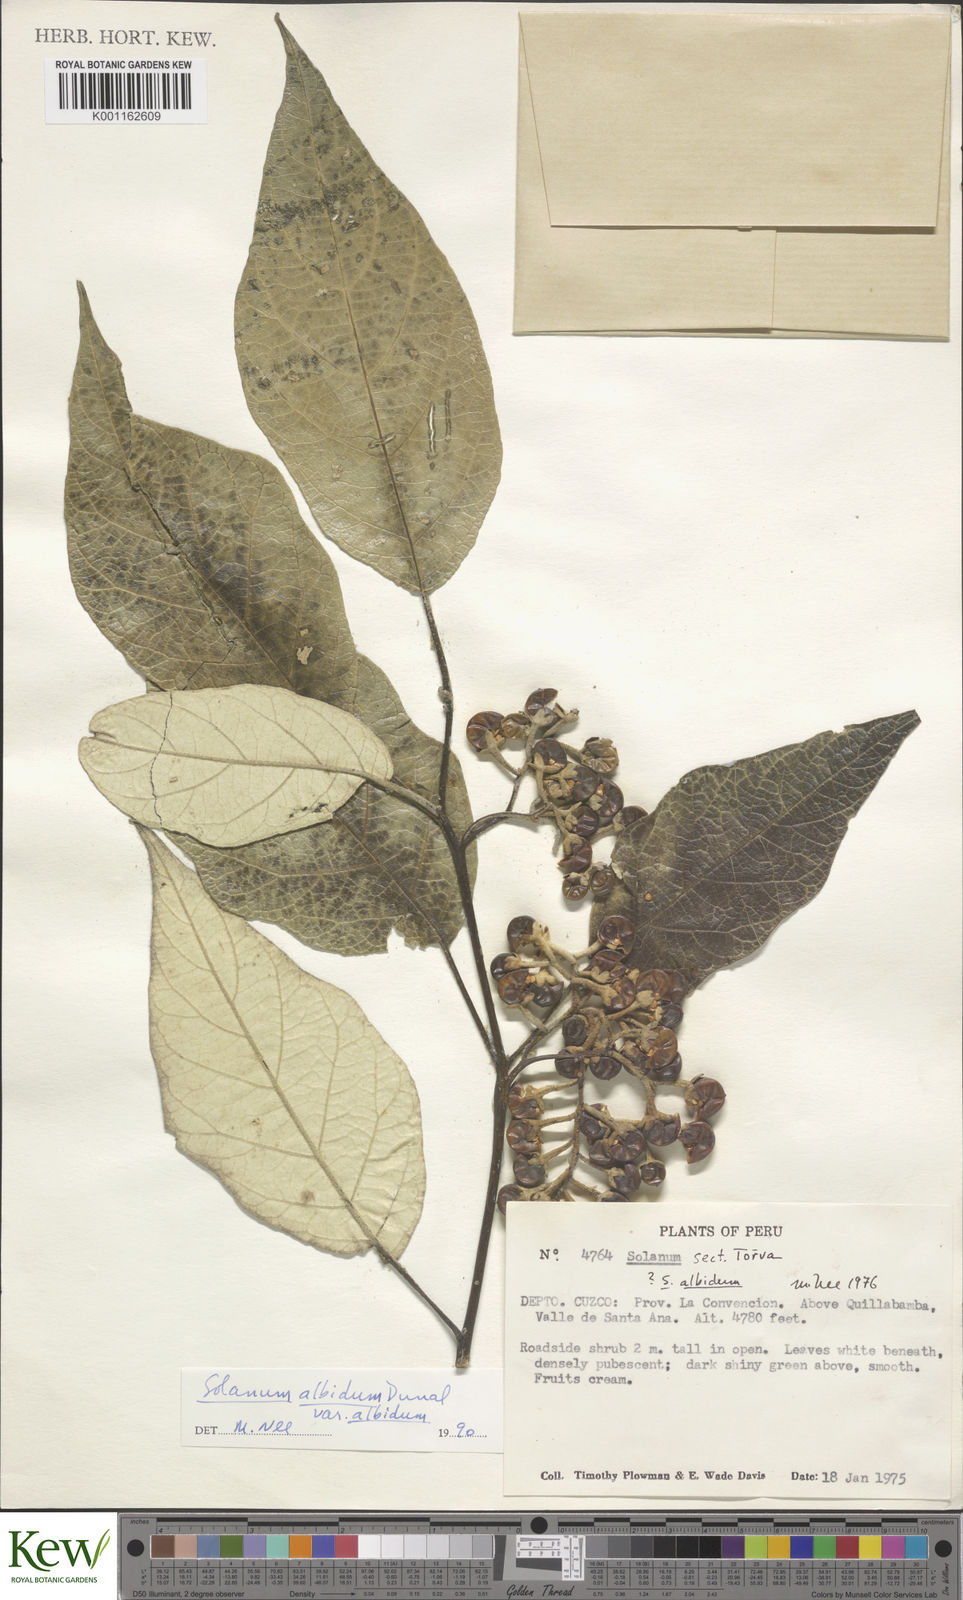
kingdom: Plantae
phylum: Tracheophyta
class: Magnoliopsida
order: Solanales
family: Solanaceae
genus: Solanum
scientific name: Solanum albidum
